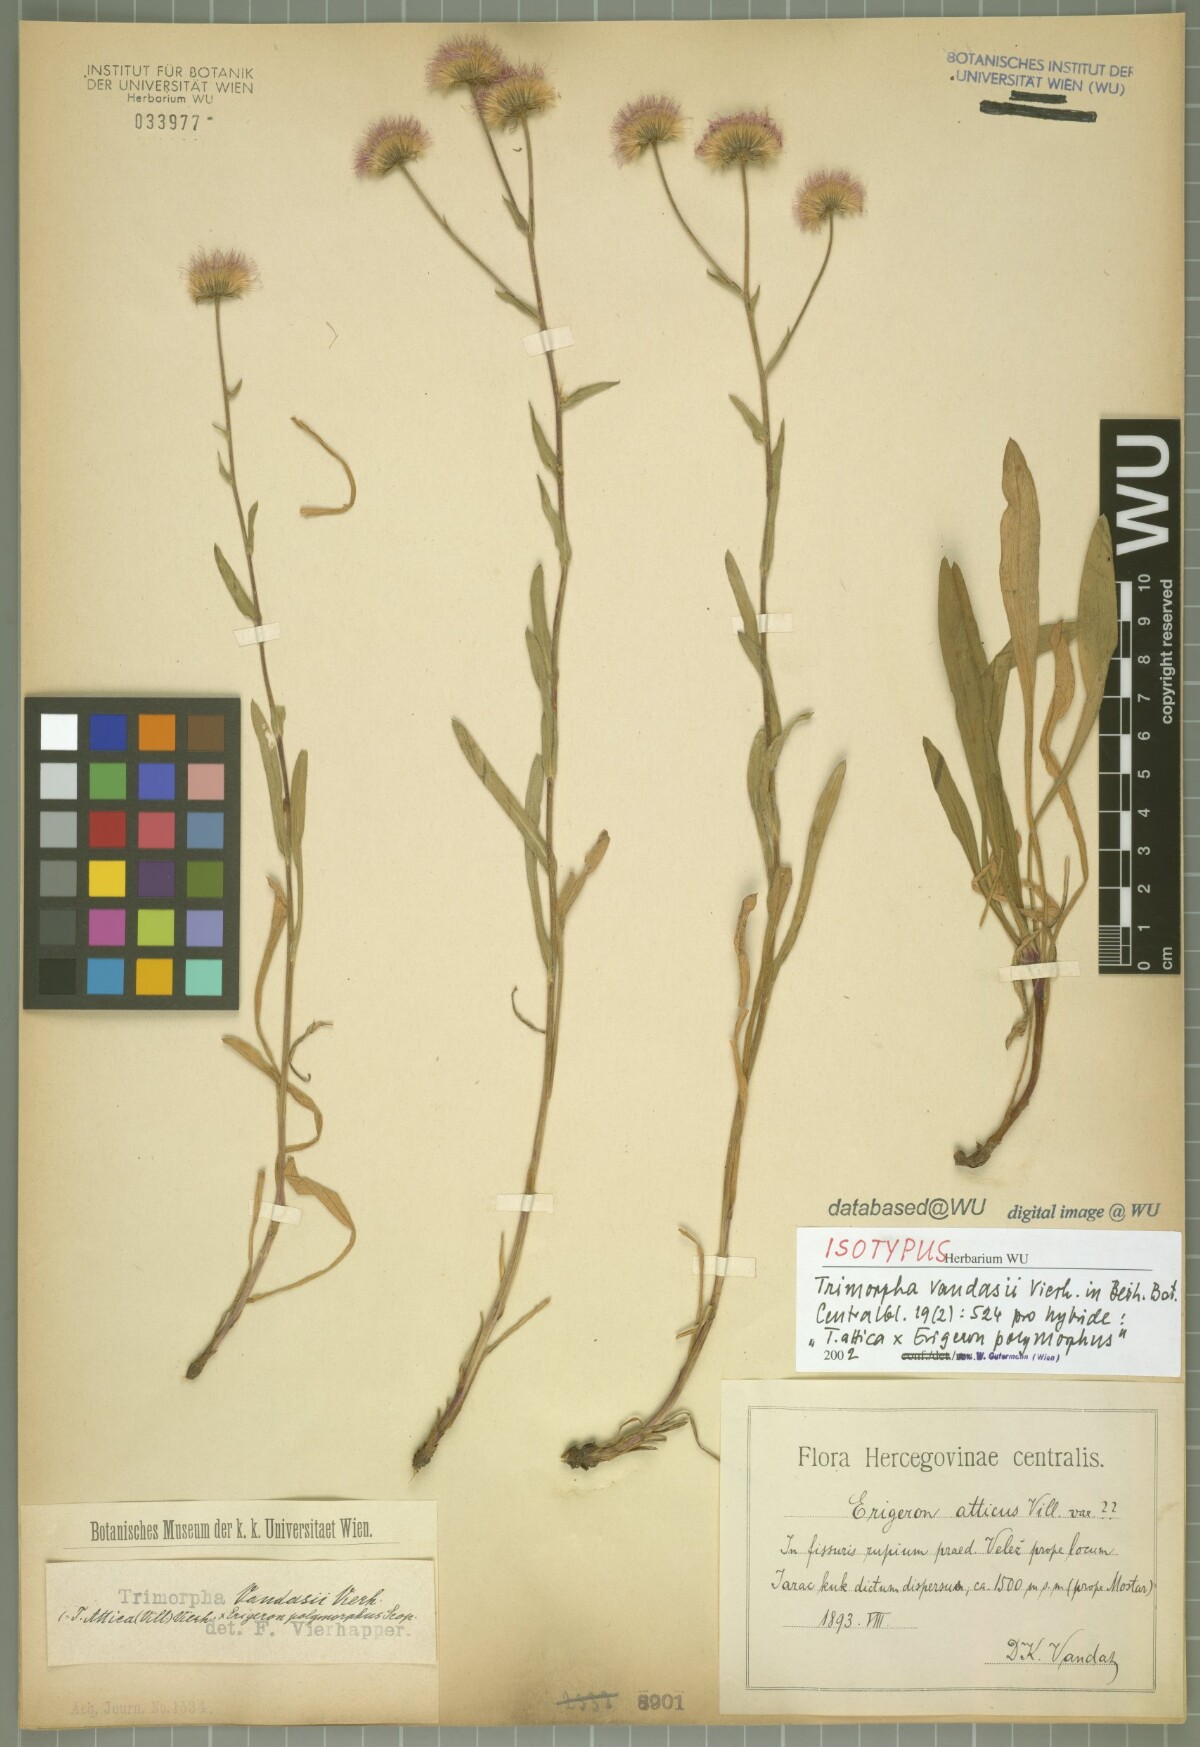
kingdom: Plantae
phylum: Tracheophyta
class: Magnoliopsida
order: Asterales
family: Asteraceae
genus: Erigeron
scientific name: Erigeron Trimorpha vandasii
